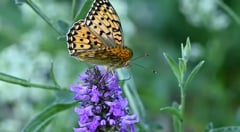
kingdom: Animalia
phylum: Arthropoda
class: Insecta
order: Lepidoptera
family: Nymphalidae
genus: Speyeria
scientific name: Speyeria aglaja
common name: Dark green fritillary
